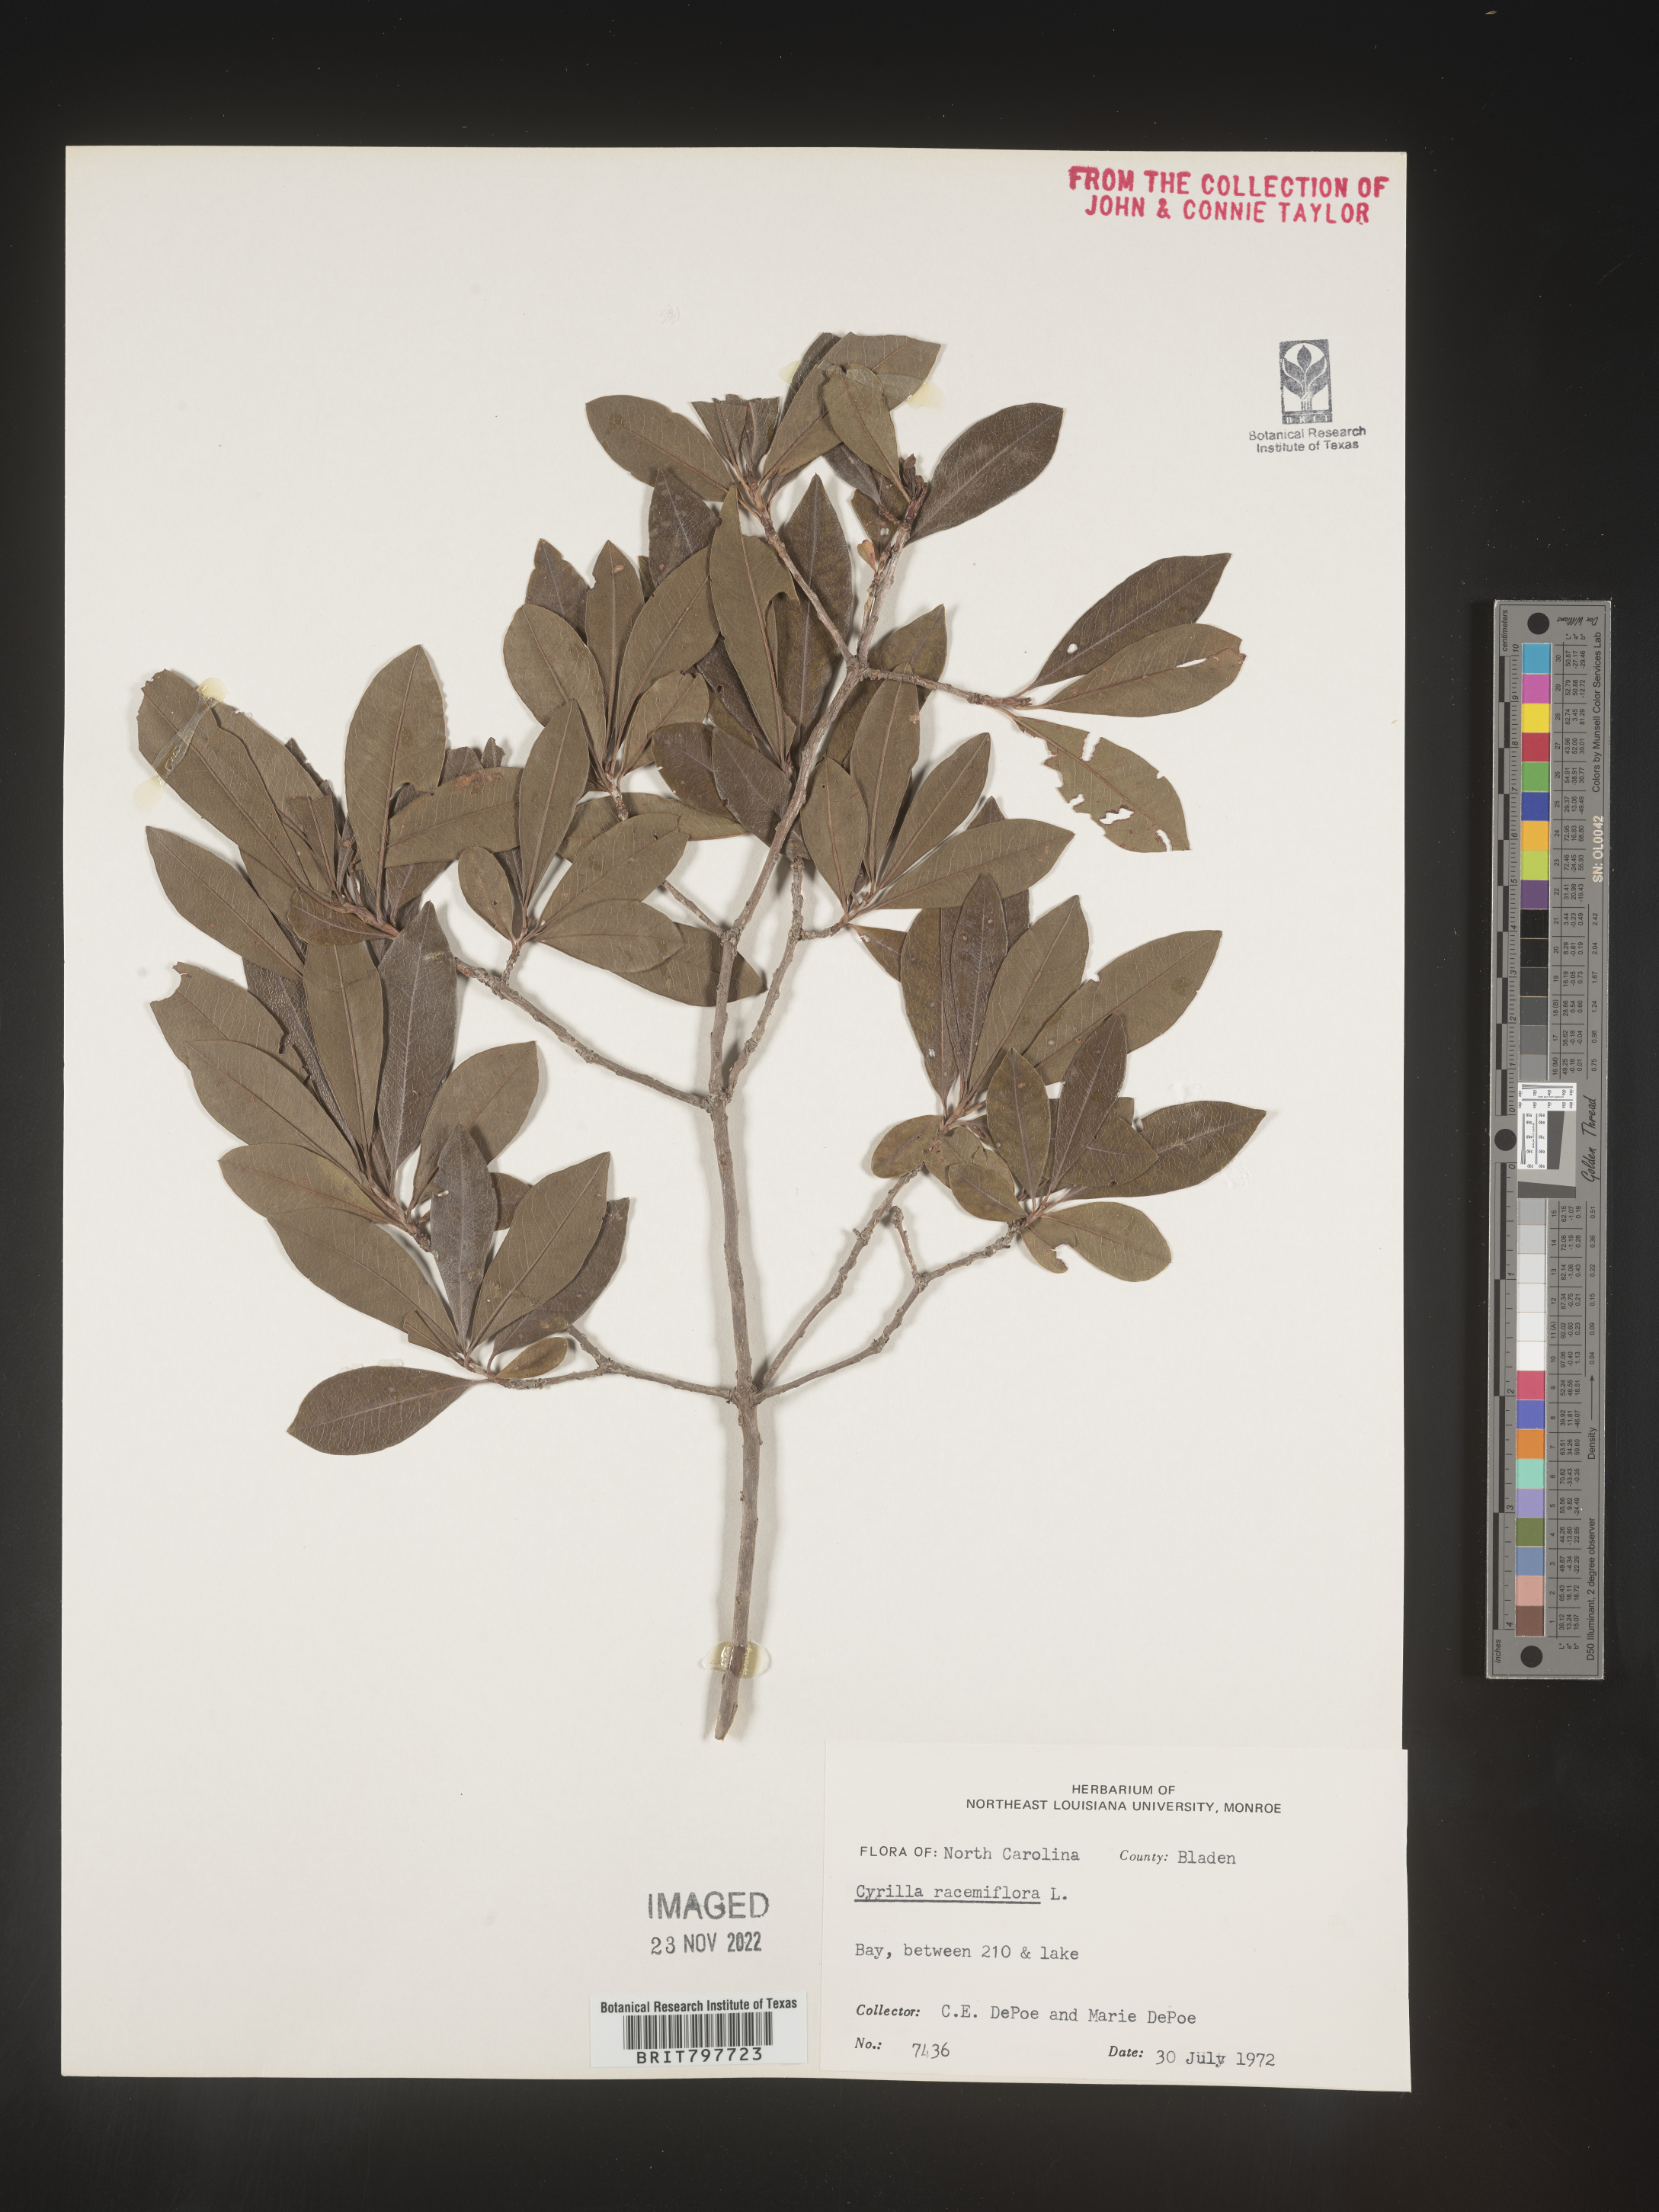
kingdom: Plantae
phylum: Tracheophyta
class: Magnoliopsida
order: Ericales
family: Cyrillaceae
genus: Cyrilla
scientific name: Cyrilla racemiflora
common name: Black titi
